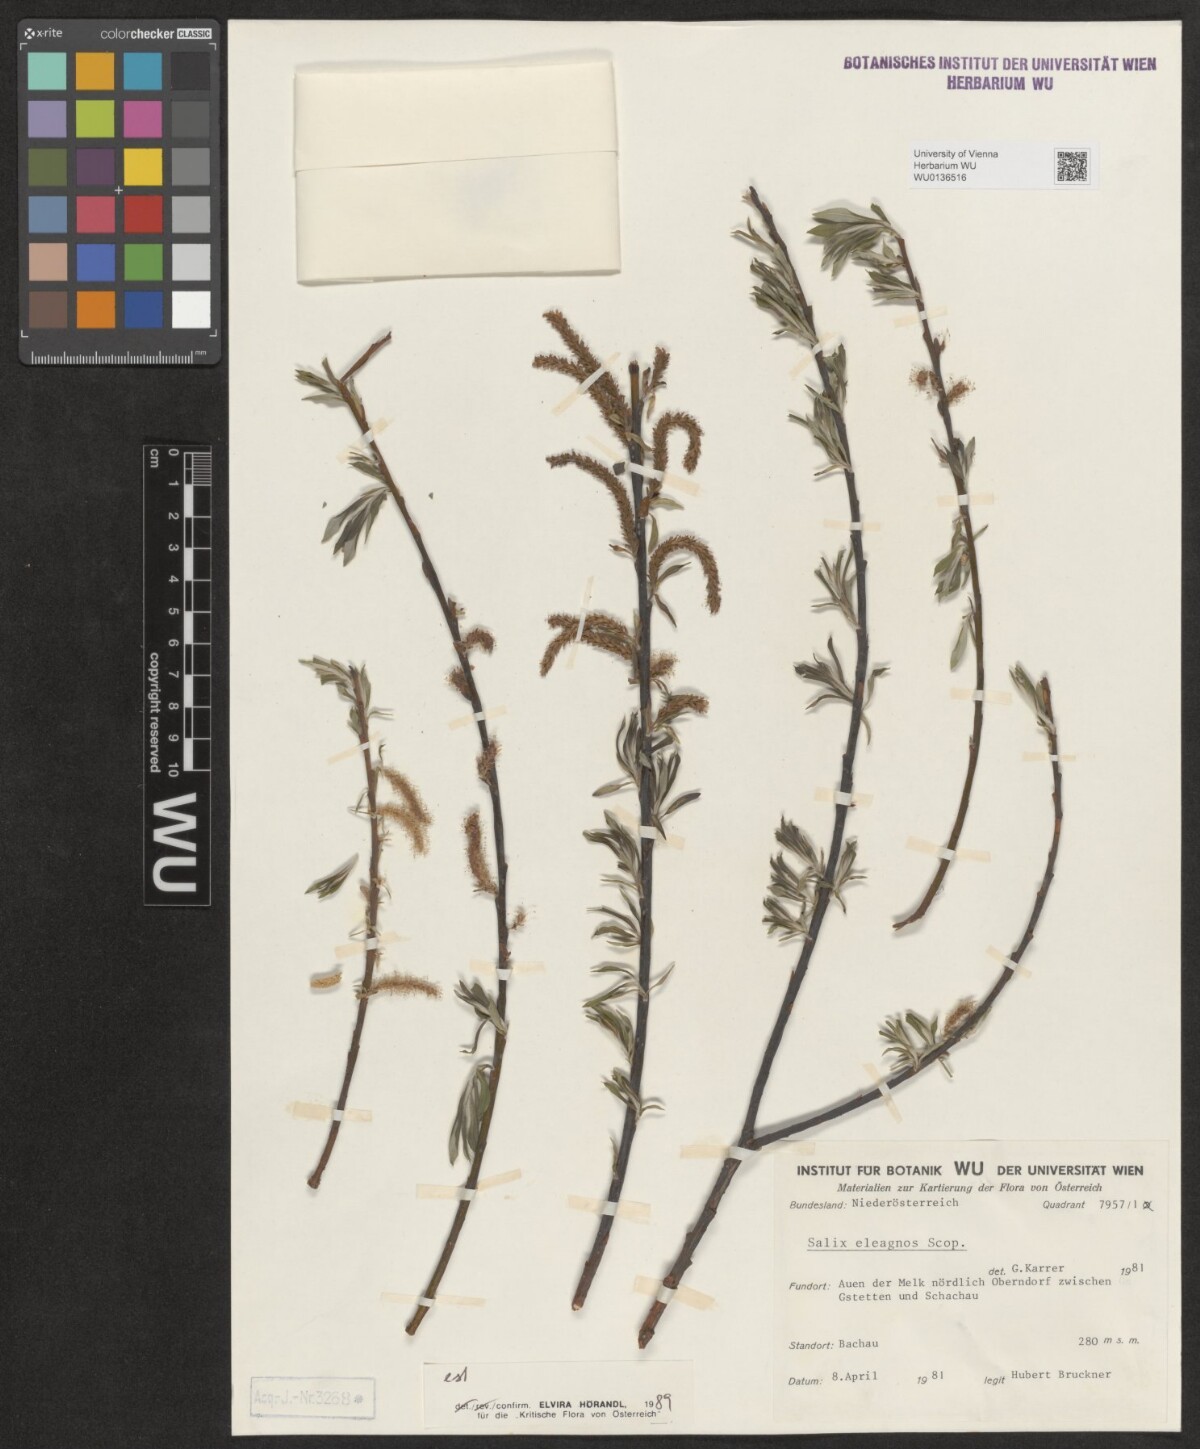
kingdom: Plantae
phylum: Tracheophyta
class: Magnoliopsida
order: Malpighiales
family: Salicaceae
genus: Salix
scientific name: Salix eleagnos
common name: Elaeagnus willow
